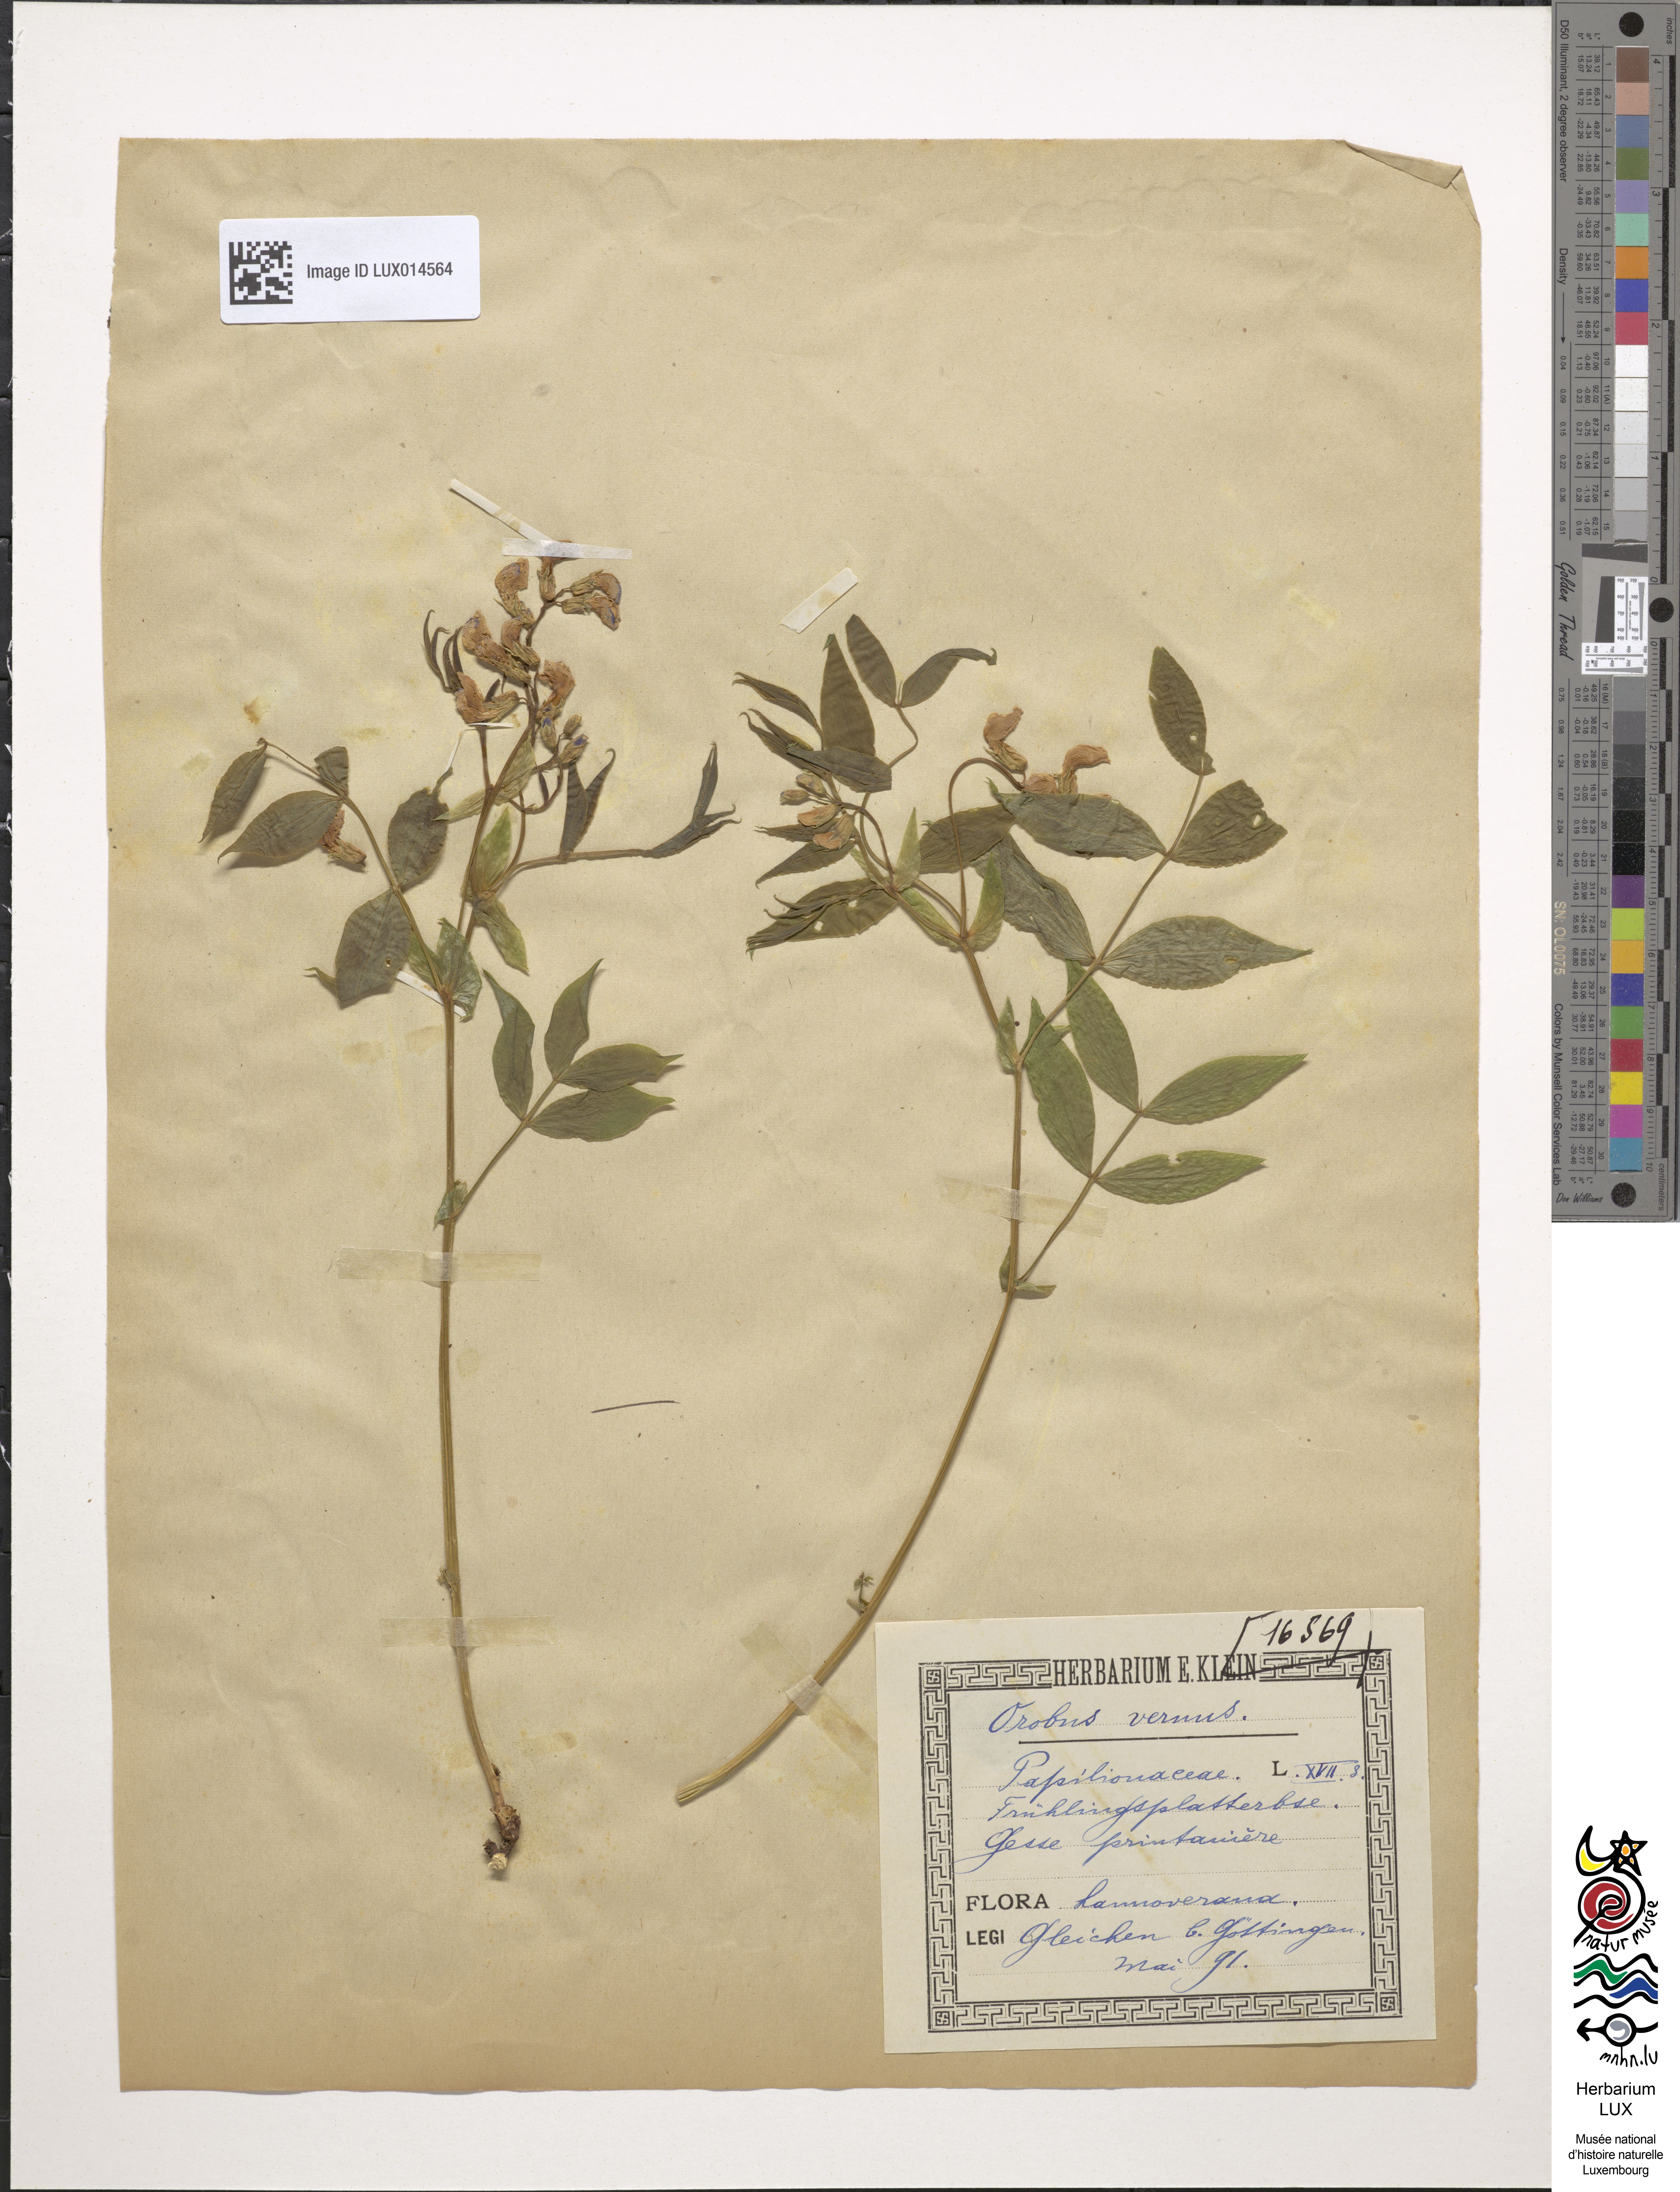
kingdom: Plantae
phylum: Tracheophyta
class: Magnoliopsida
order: Fabales
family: Fabaceae
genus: Lathyrus
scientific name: Lathyrus vernus
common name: Spring pea
